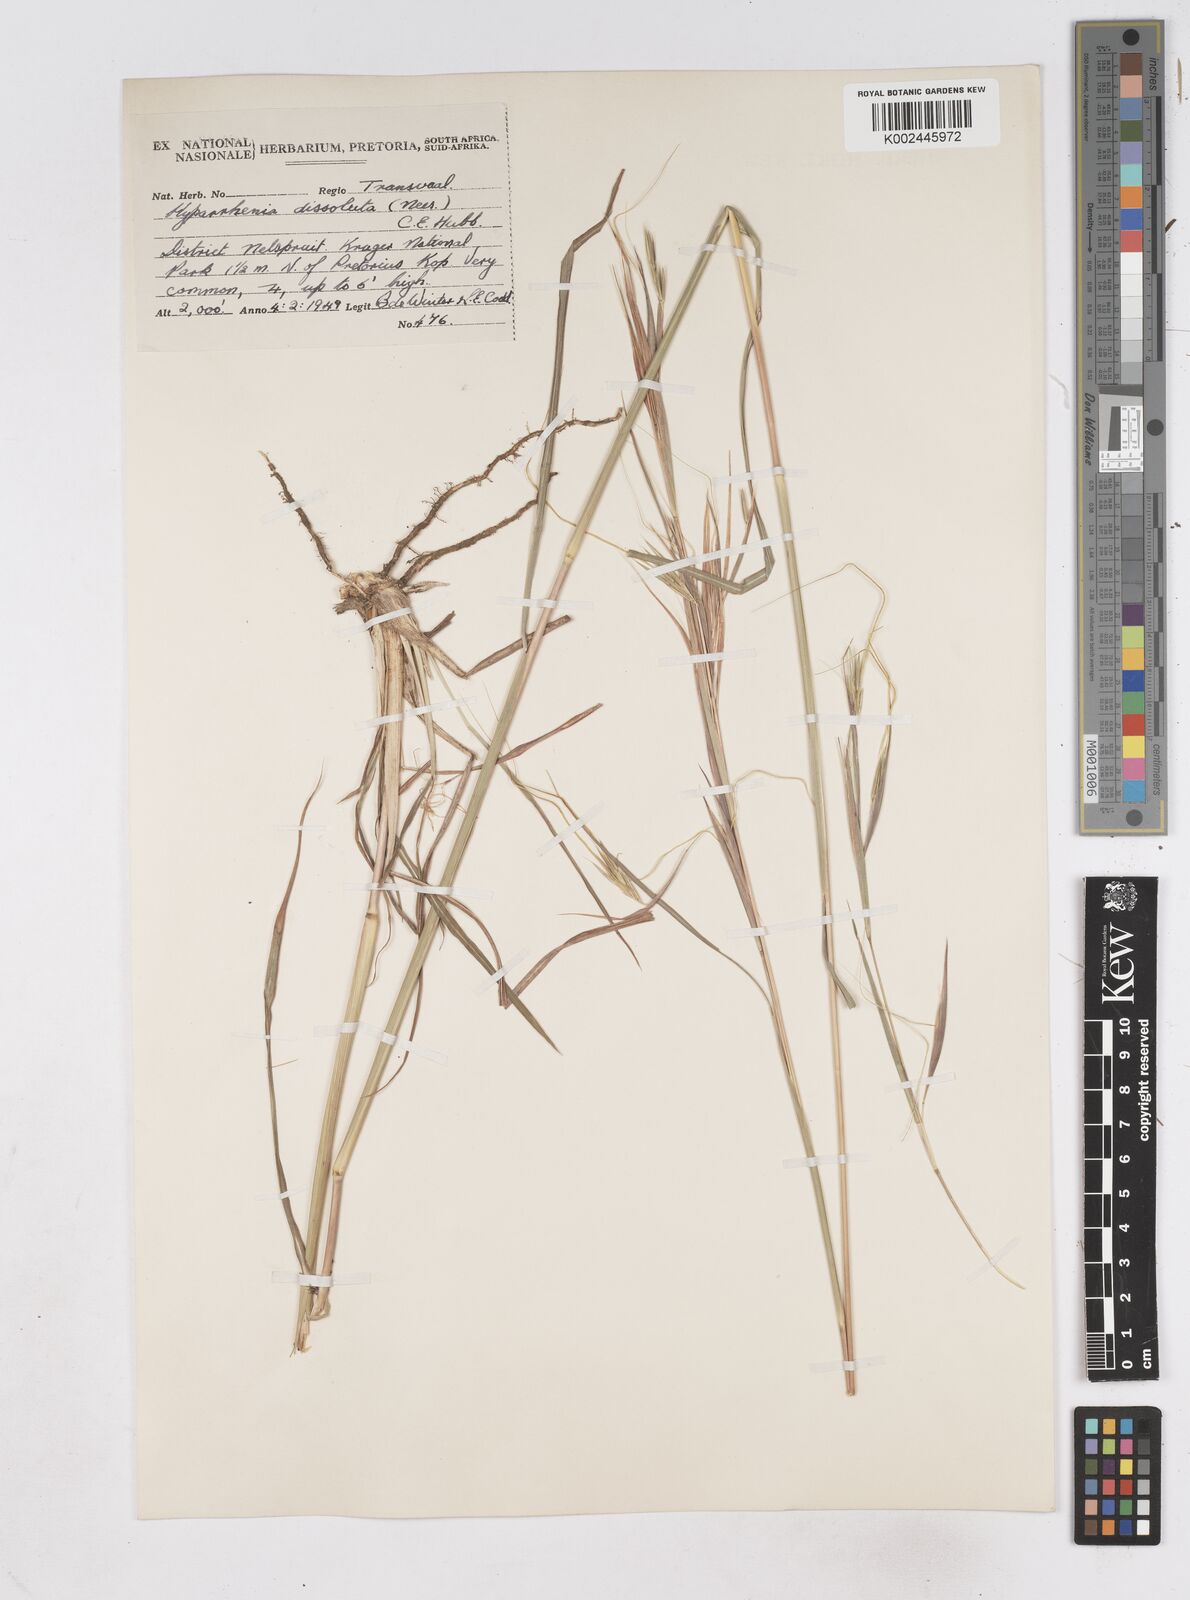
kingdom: Plantae
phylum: Tracheophyta
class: Liliopsida
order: Poales
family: Poaceae
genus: Hyperthelia
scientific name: Hyperthelia dissoluta
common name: Yellow thatching grass
